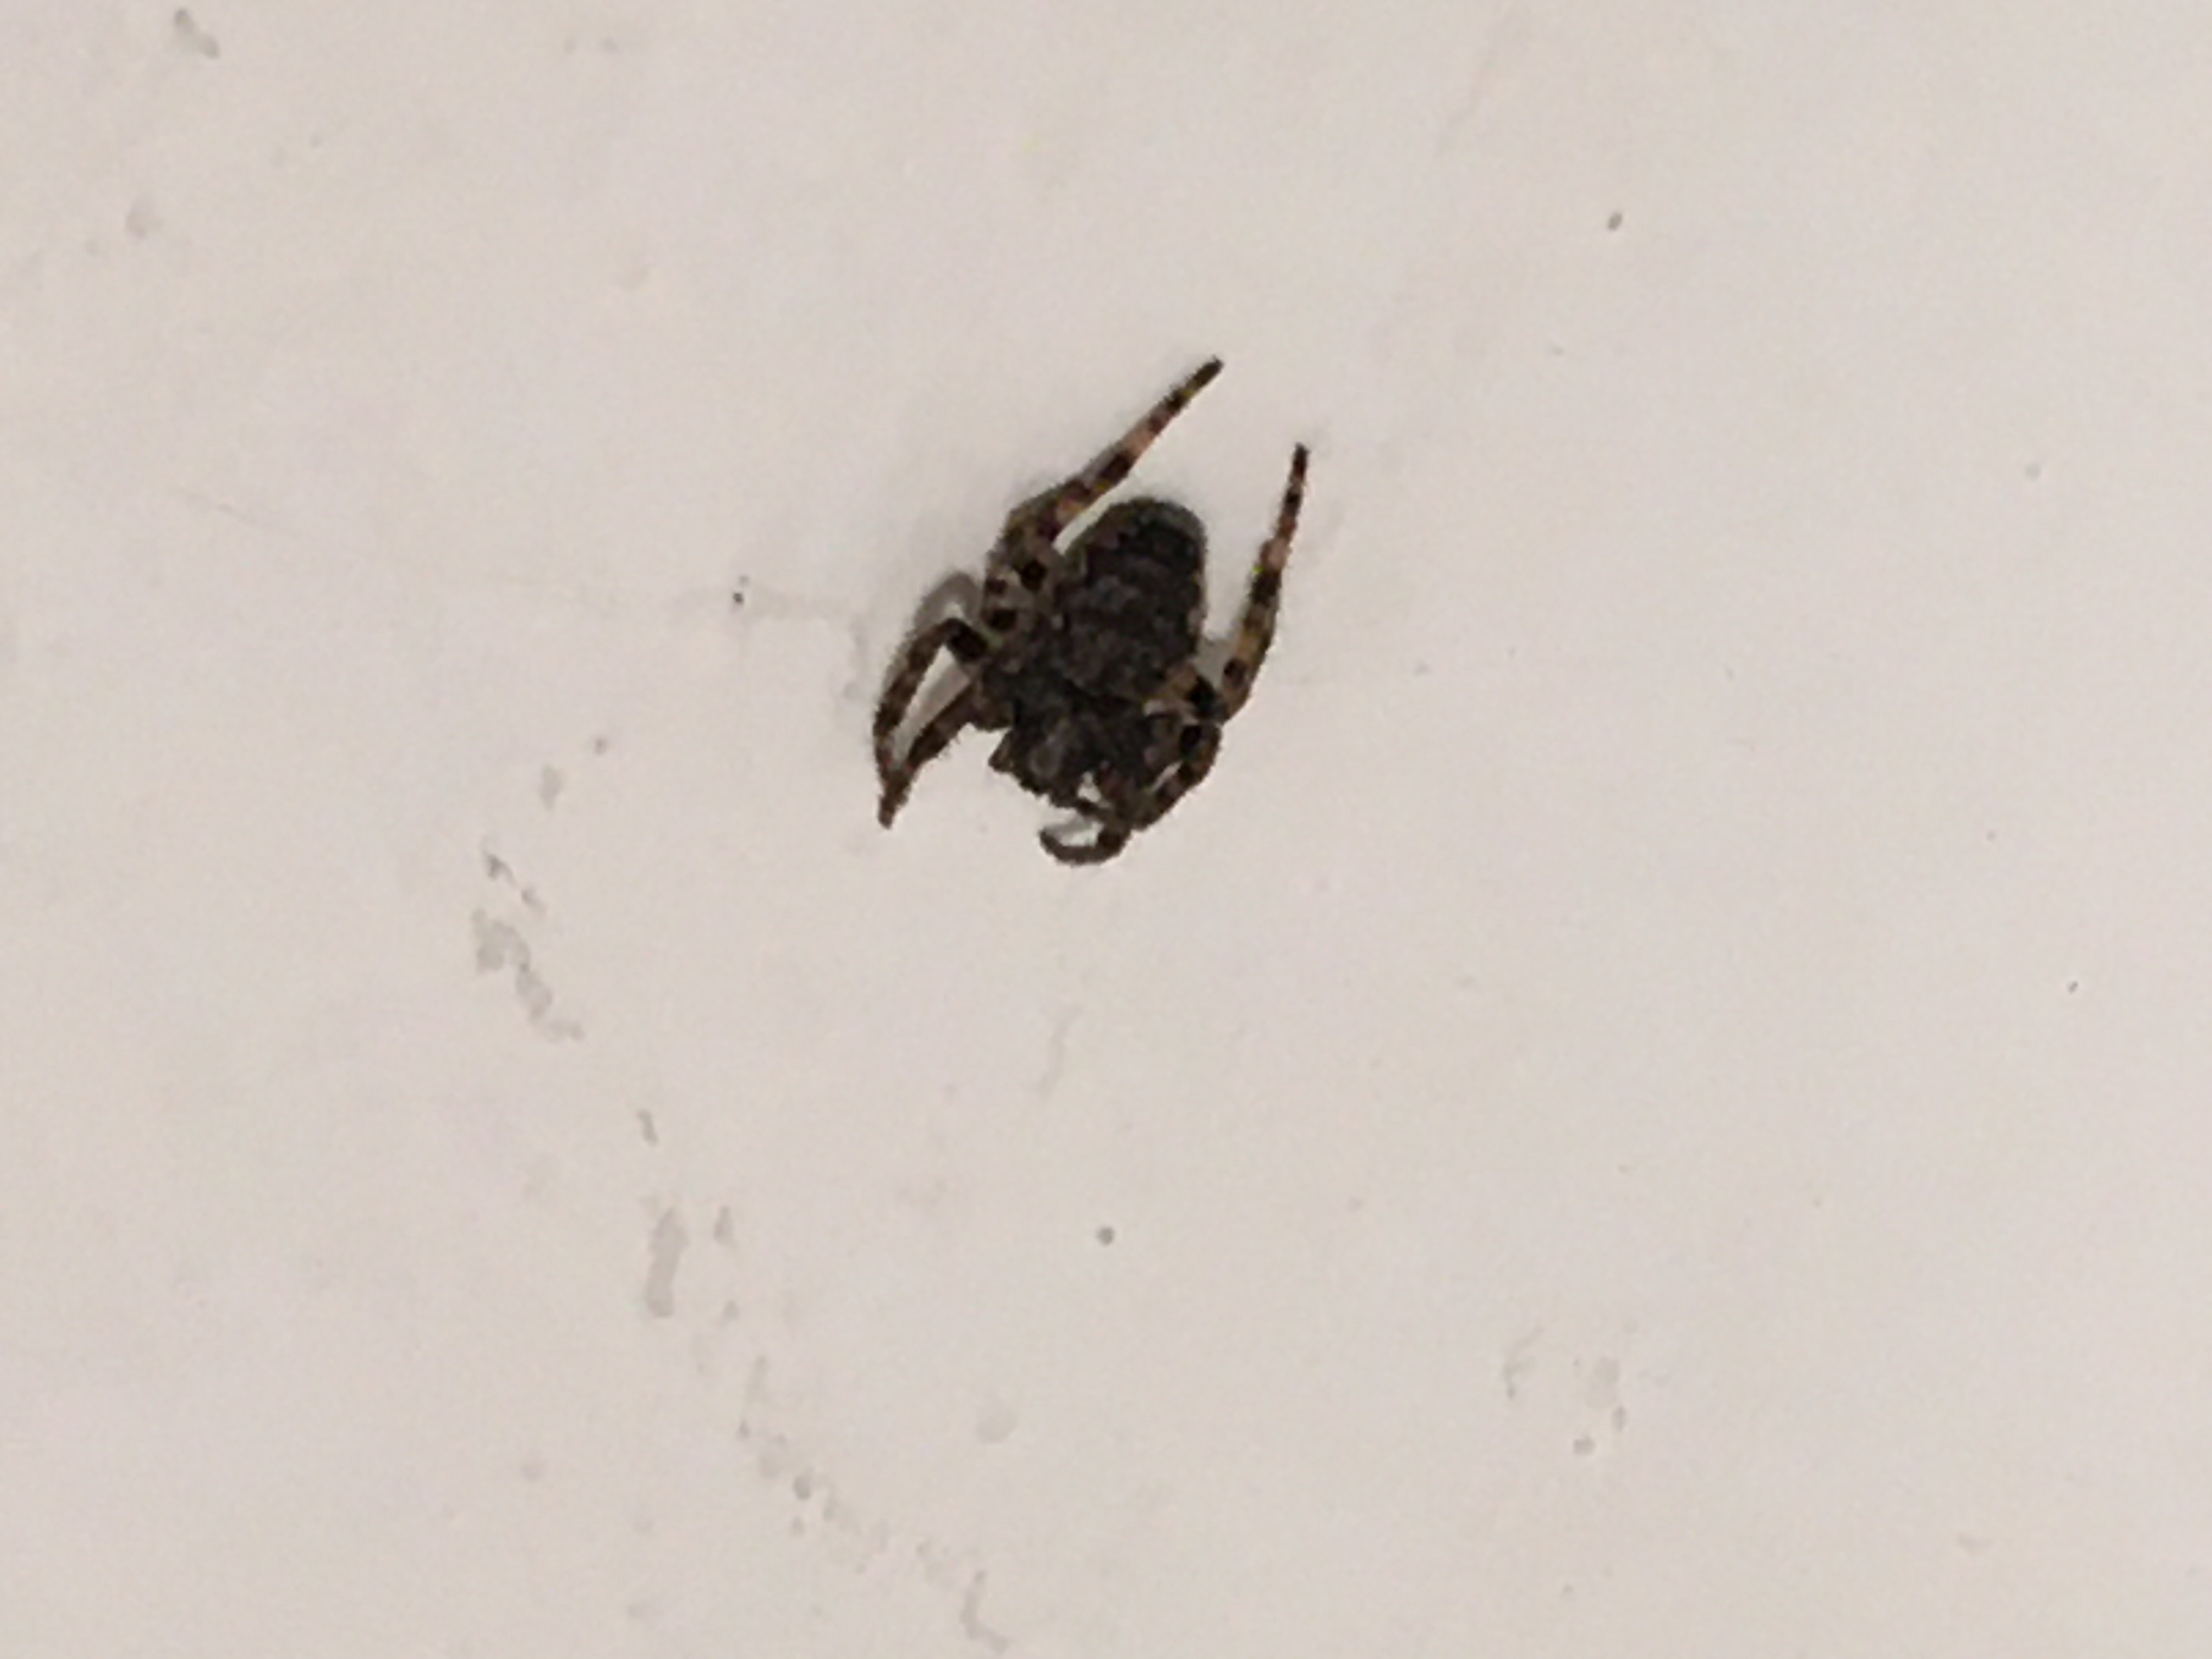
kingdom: Animalia
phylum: Arthropoda
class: Arachnida
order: Araneae
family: Araneidae
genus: Nuctenea
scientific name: Nuctenea umbratica
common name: Flad hjulspinder
